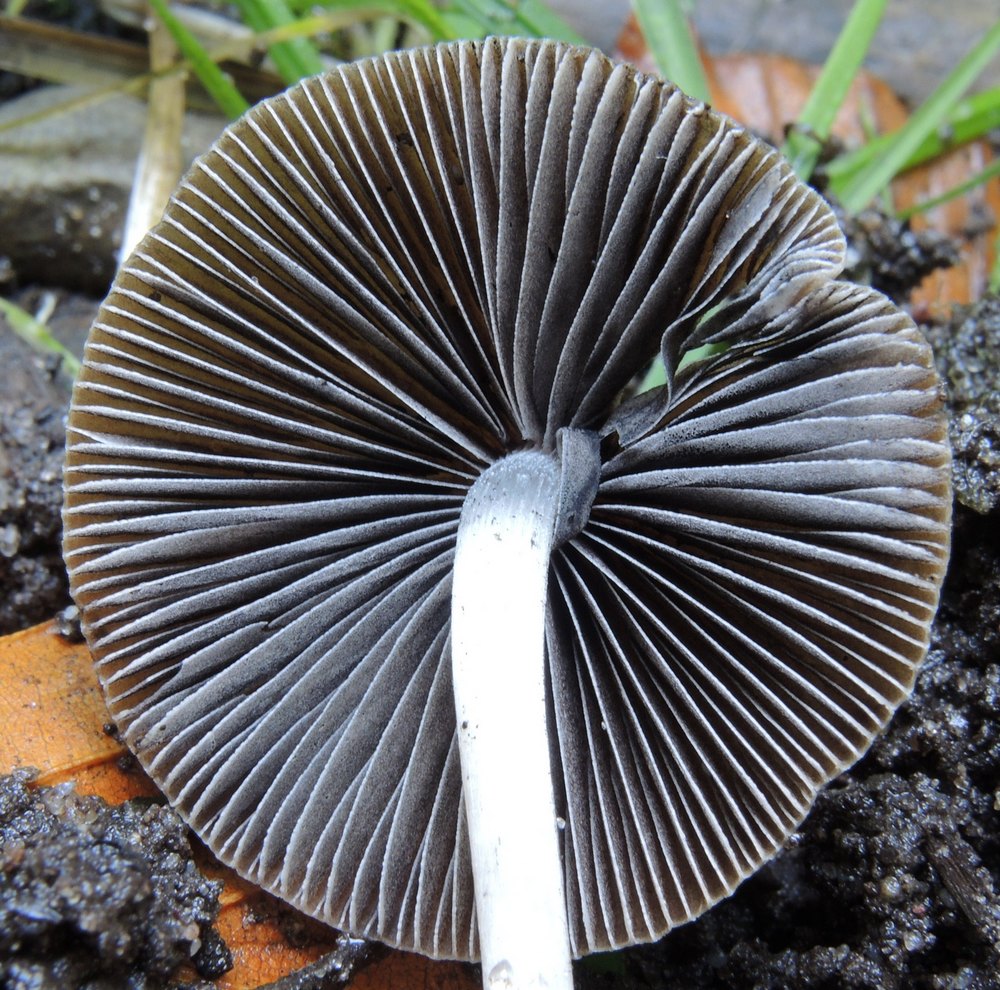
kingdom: Fungi
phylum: Basidiomycota
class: Agaricomycetes
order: Agaricales
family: Psathyrellaceae
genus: Psathyrella
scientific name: Psathyrella longicauda
